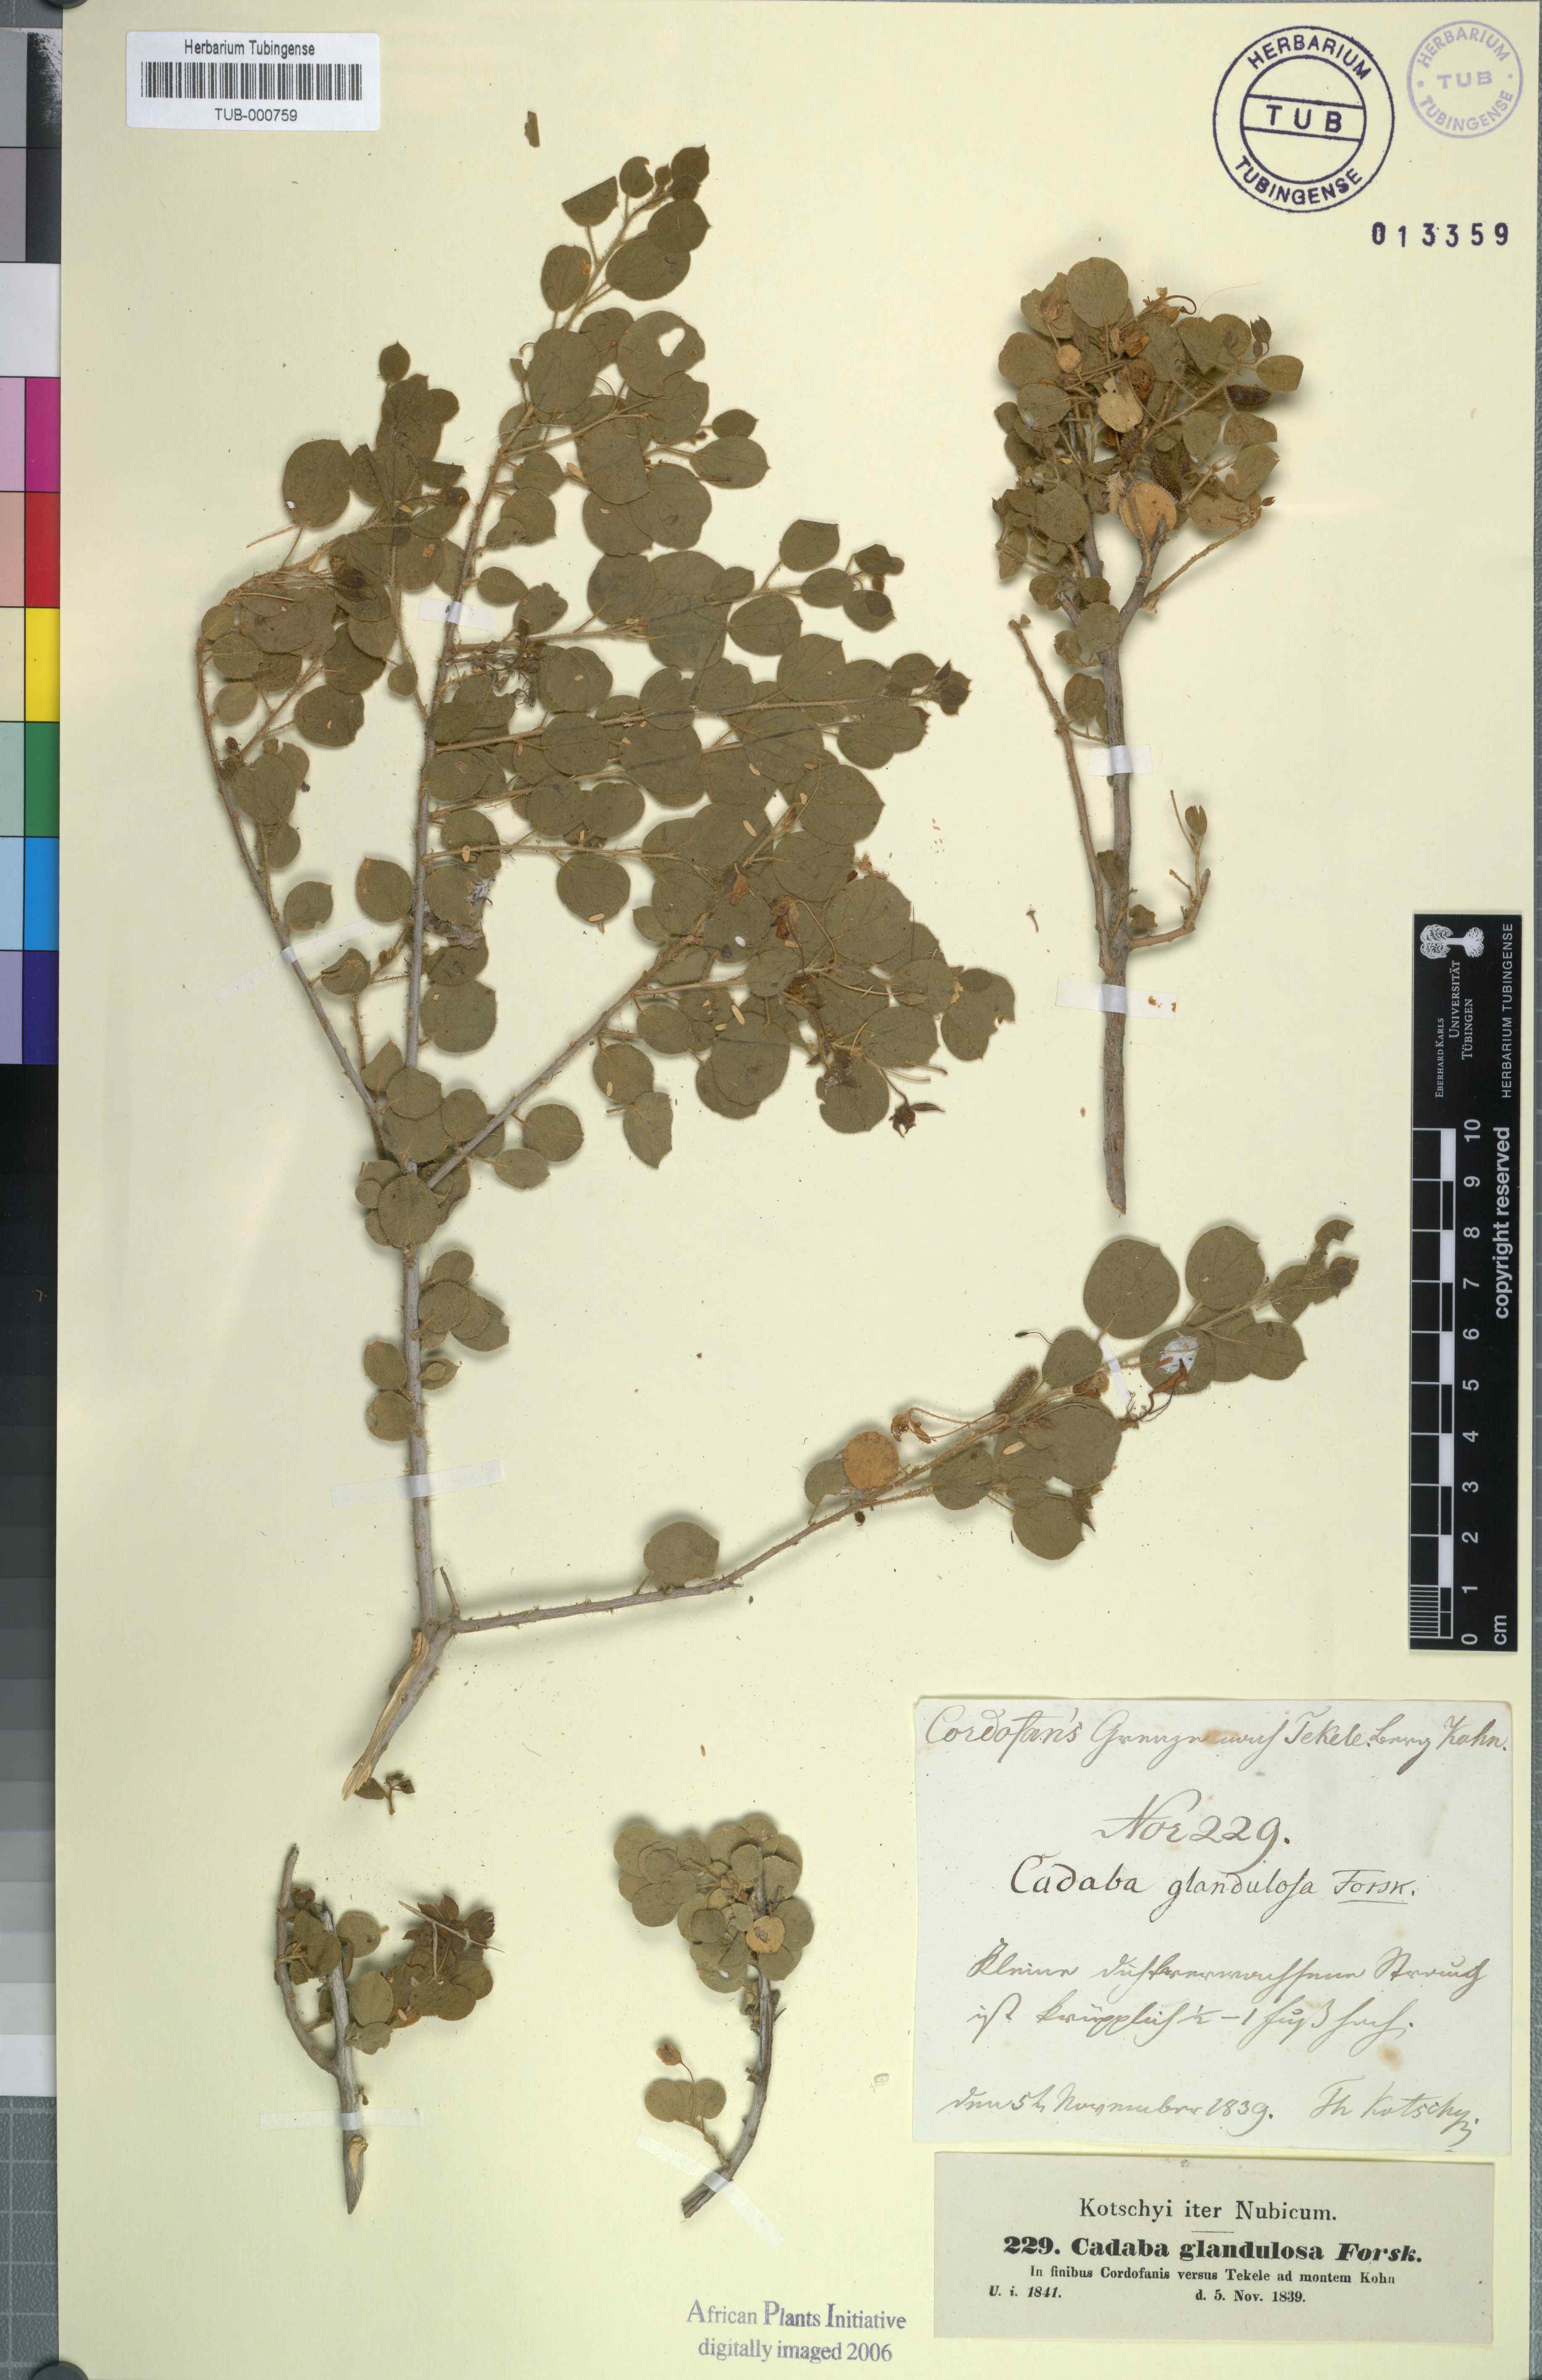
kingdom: Plantae
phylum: Tracheophyta
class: Magnoliopsida
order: Brassicales
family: Capparaceae
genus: Cadaba
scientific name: Cadaba glandulosa
